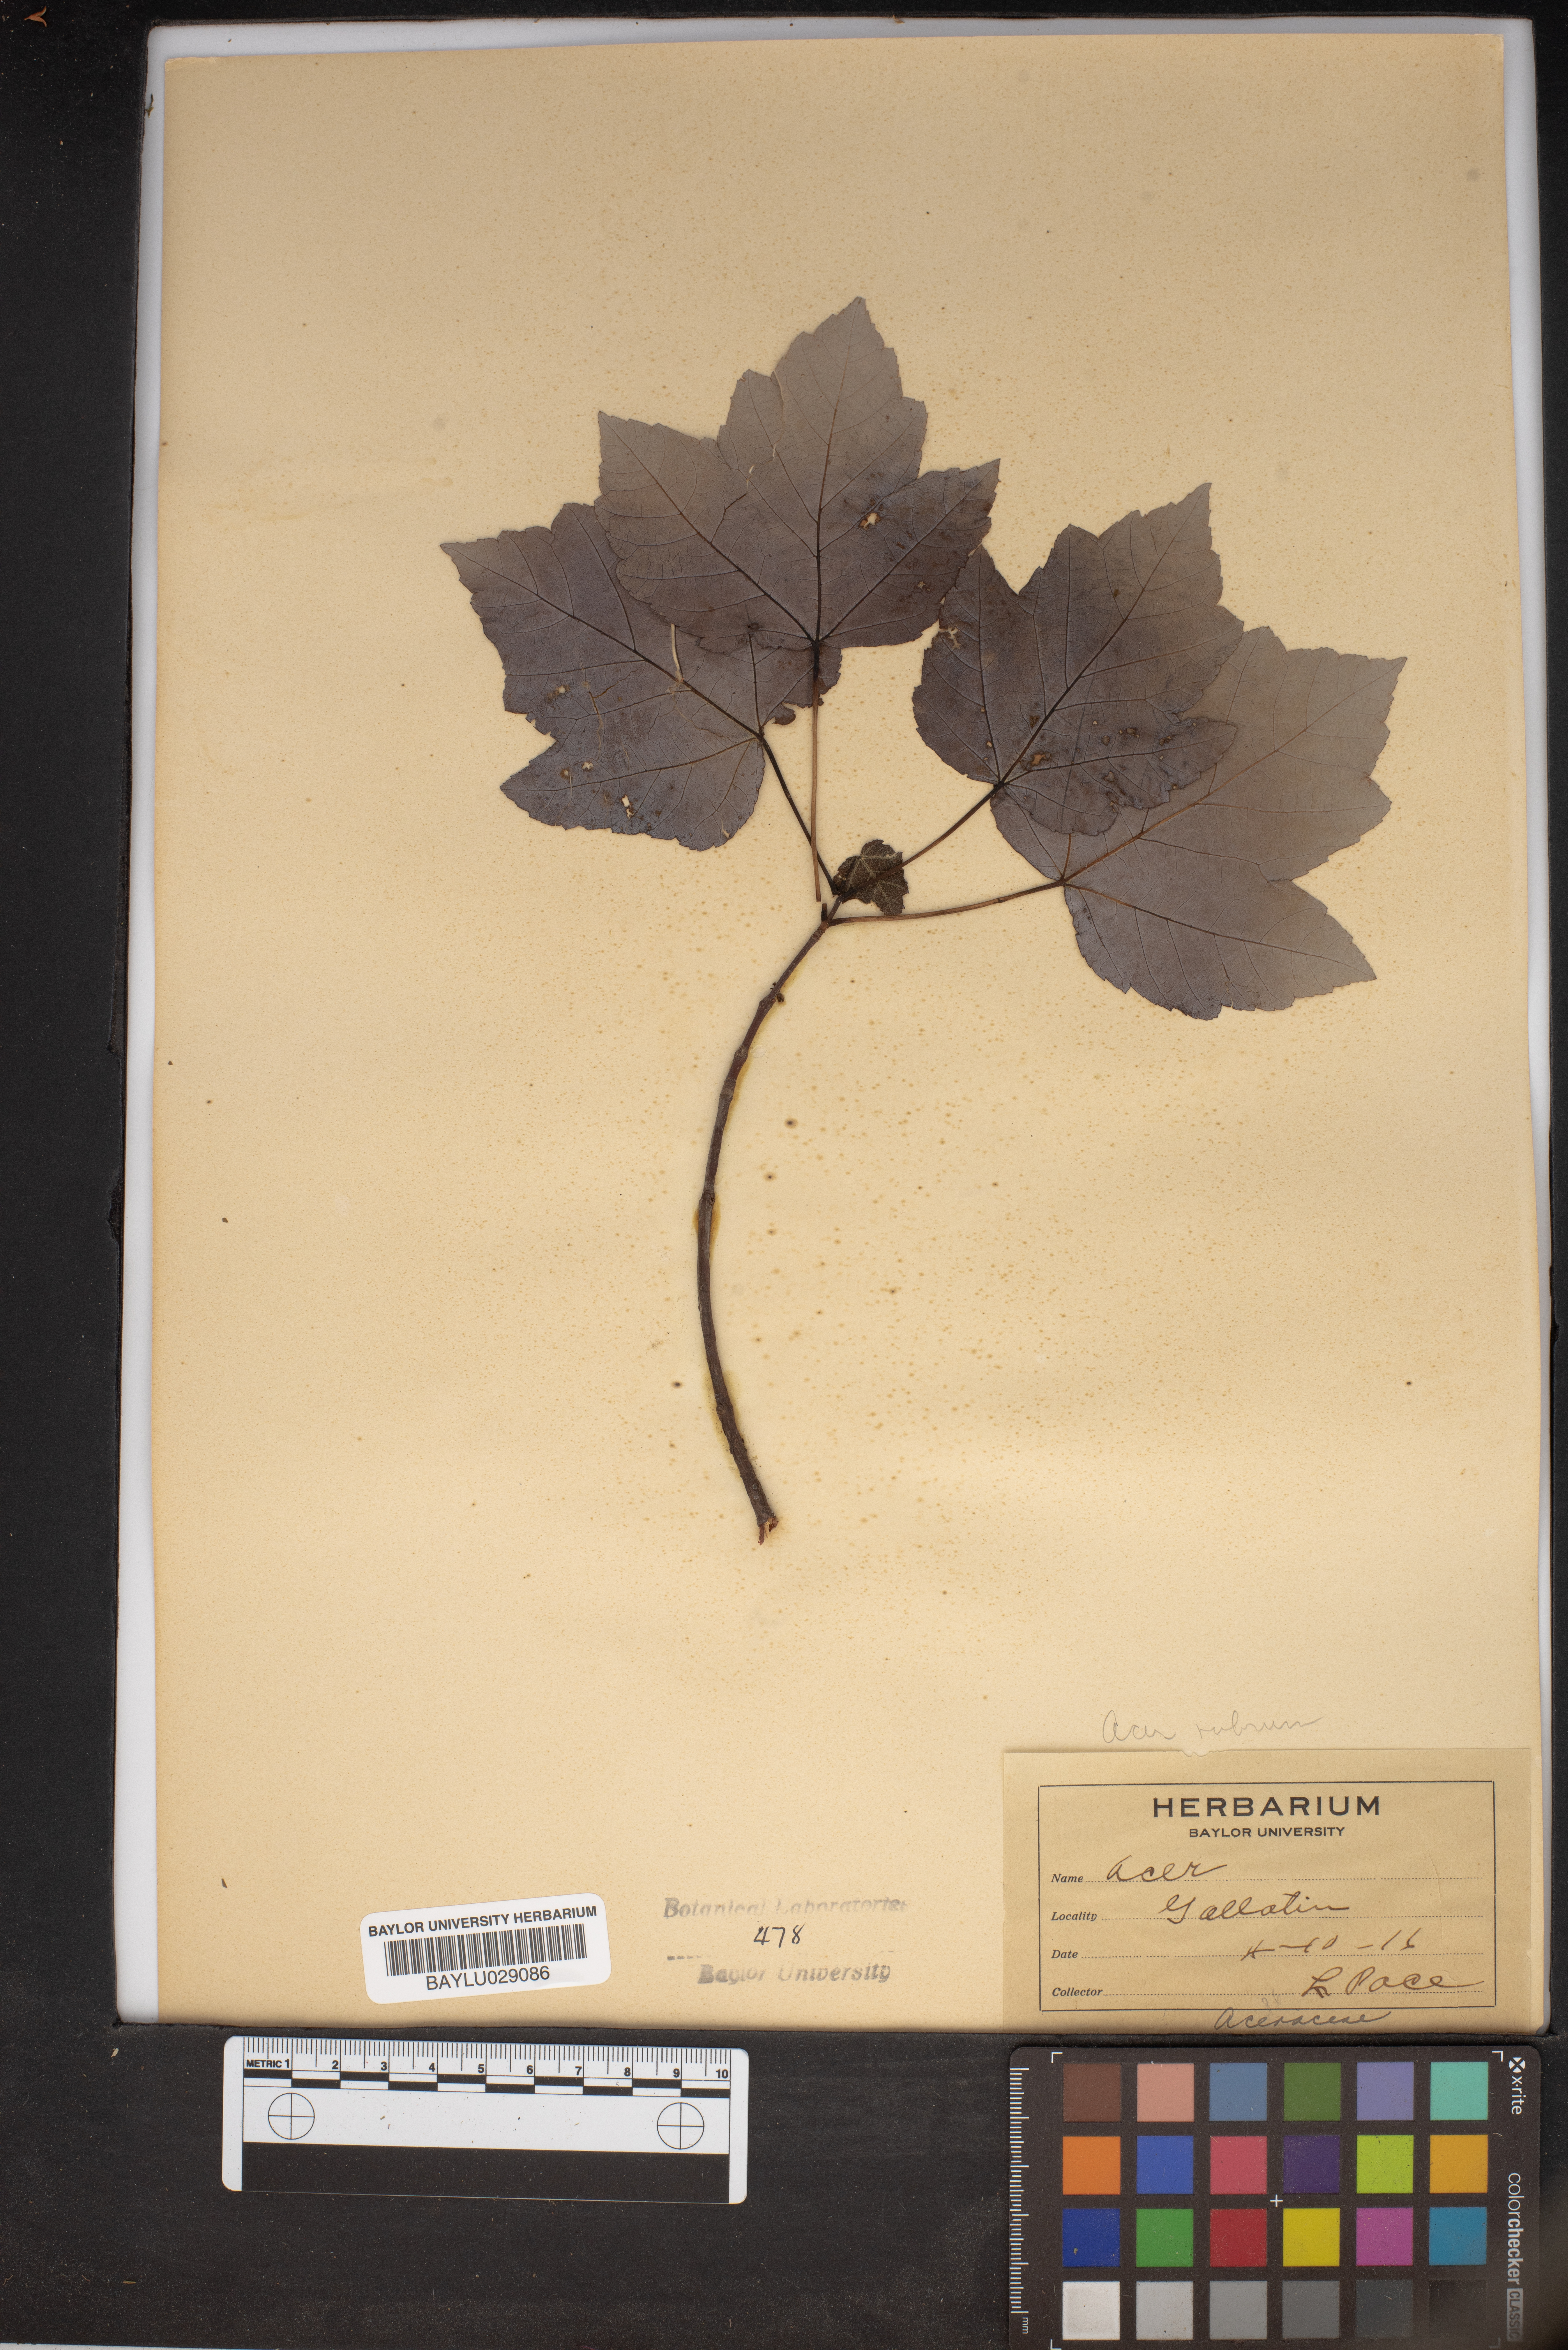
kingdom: Plantae
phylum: Tracheophyta
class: Magnoliopsida
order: Sapindales
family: Sapindaceae
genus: Acer
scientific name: Acer
